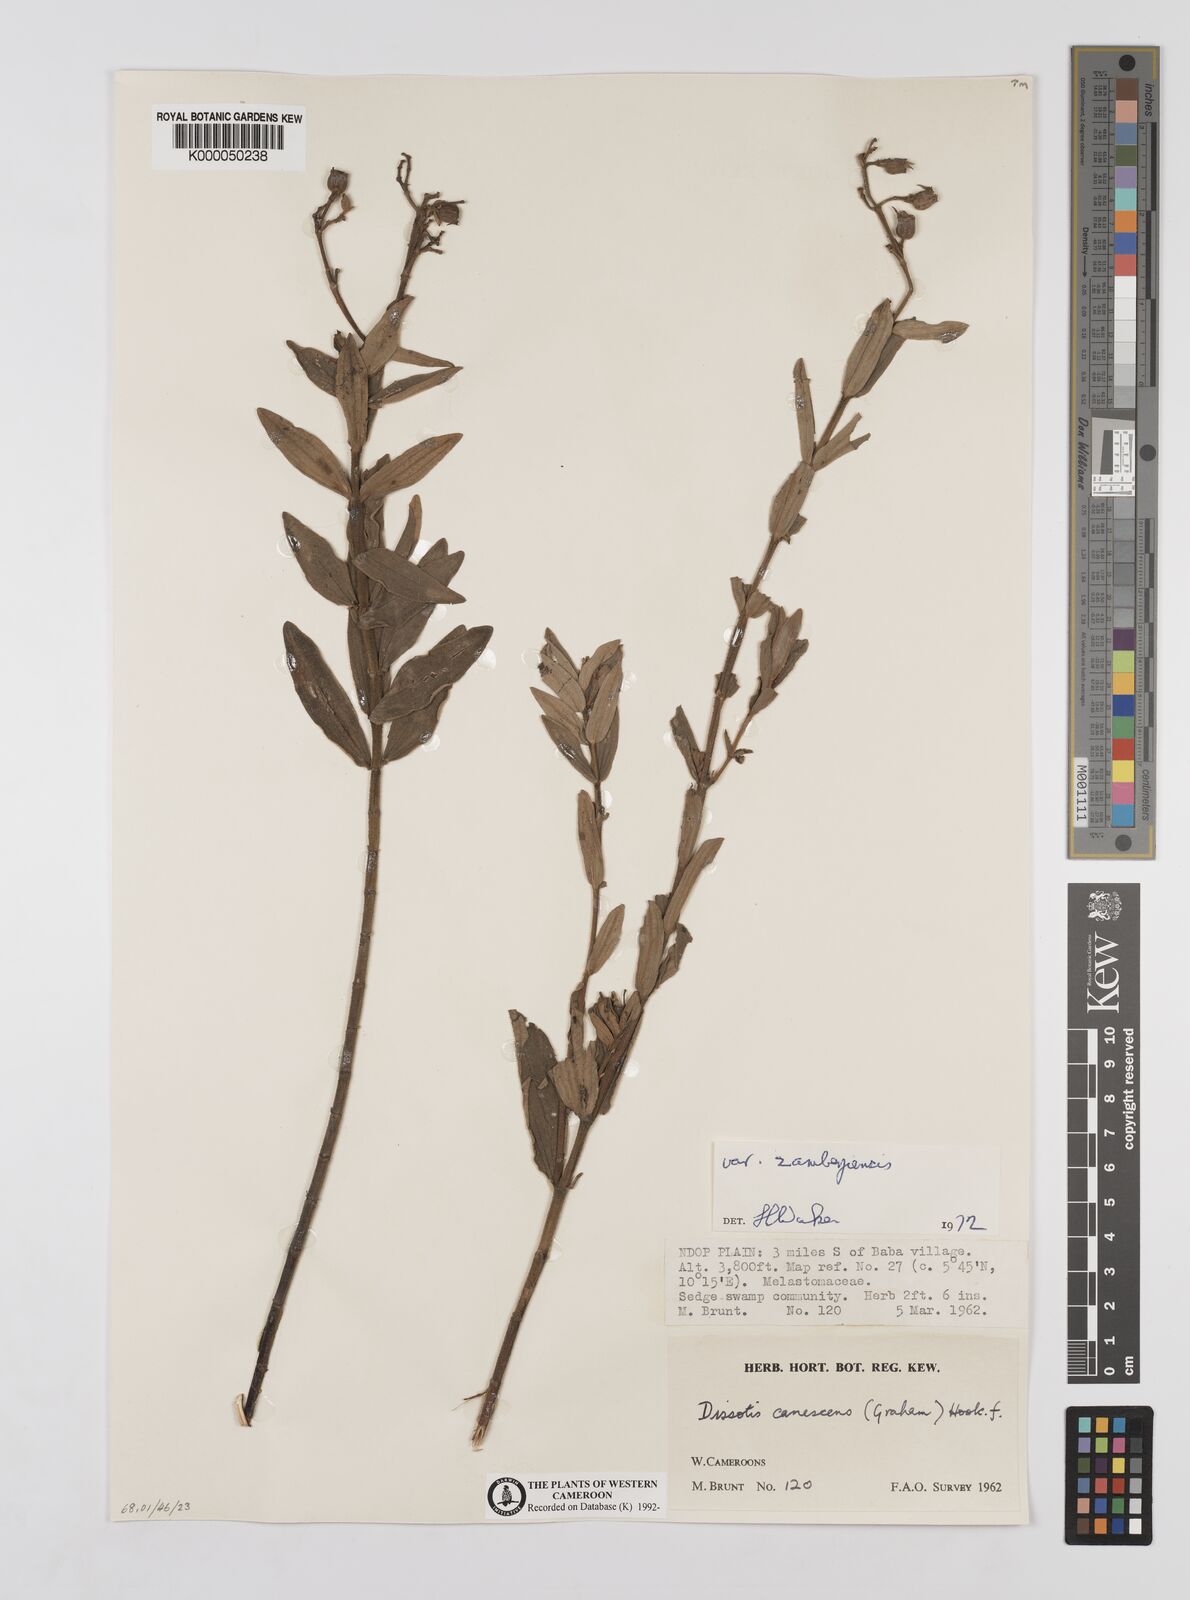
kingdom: Plantae
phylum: Tracheophyta
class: Magnoliopsida
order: Myrtales
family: Melastomataceae
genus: Heterotis
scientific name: Heterotis
